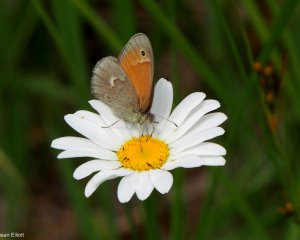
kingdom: Animalia
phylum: Arthropoda
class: Insecta
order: Lepidoptera
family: Nymphalidae
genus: Coenonympha
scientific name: Coenonympha tullia
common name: Large Heath
